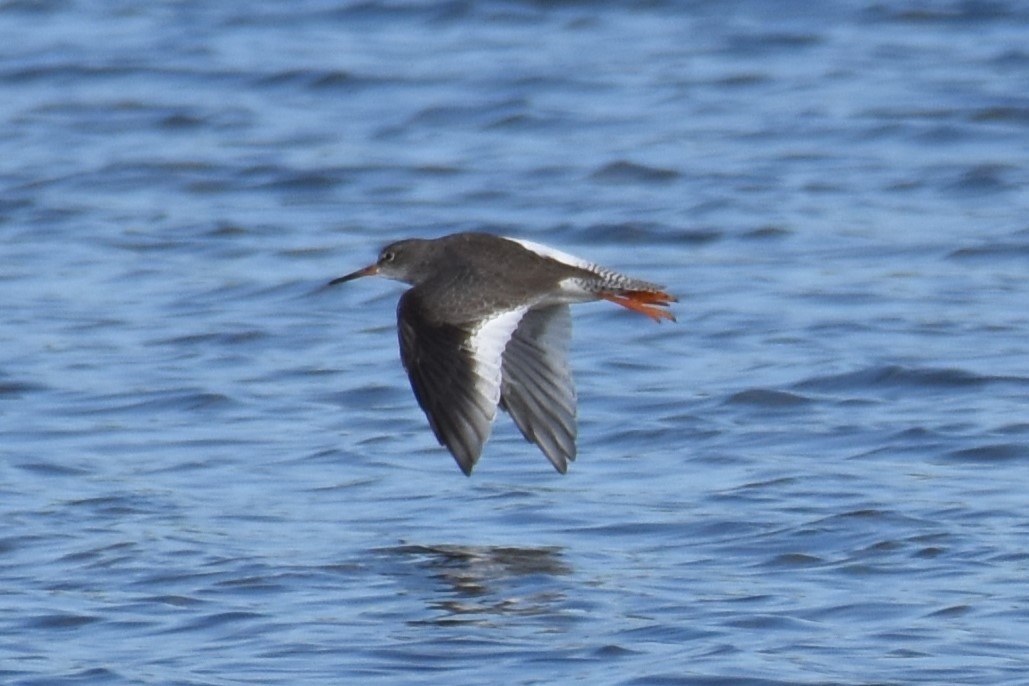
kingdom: Animalia
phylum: Chordata
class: Aves
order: Charadriiformes
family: Scolopacidae
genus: Tringa
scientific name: Tringa totanus
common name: Rødben
